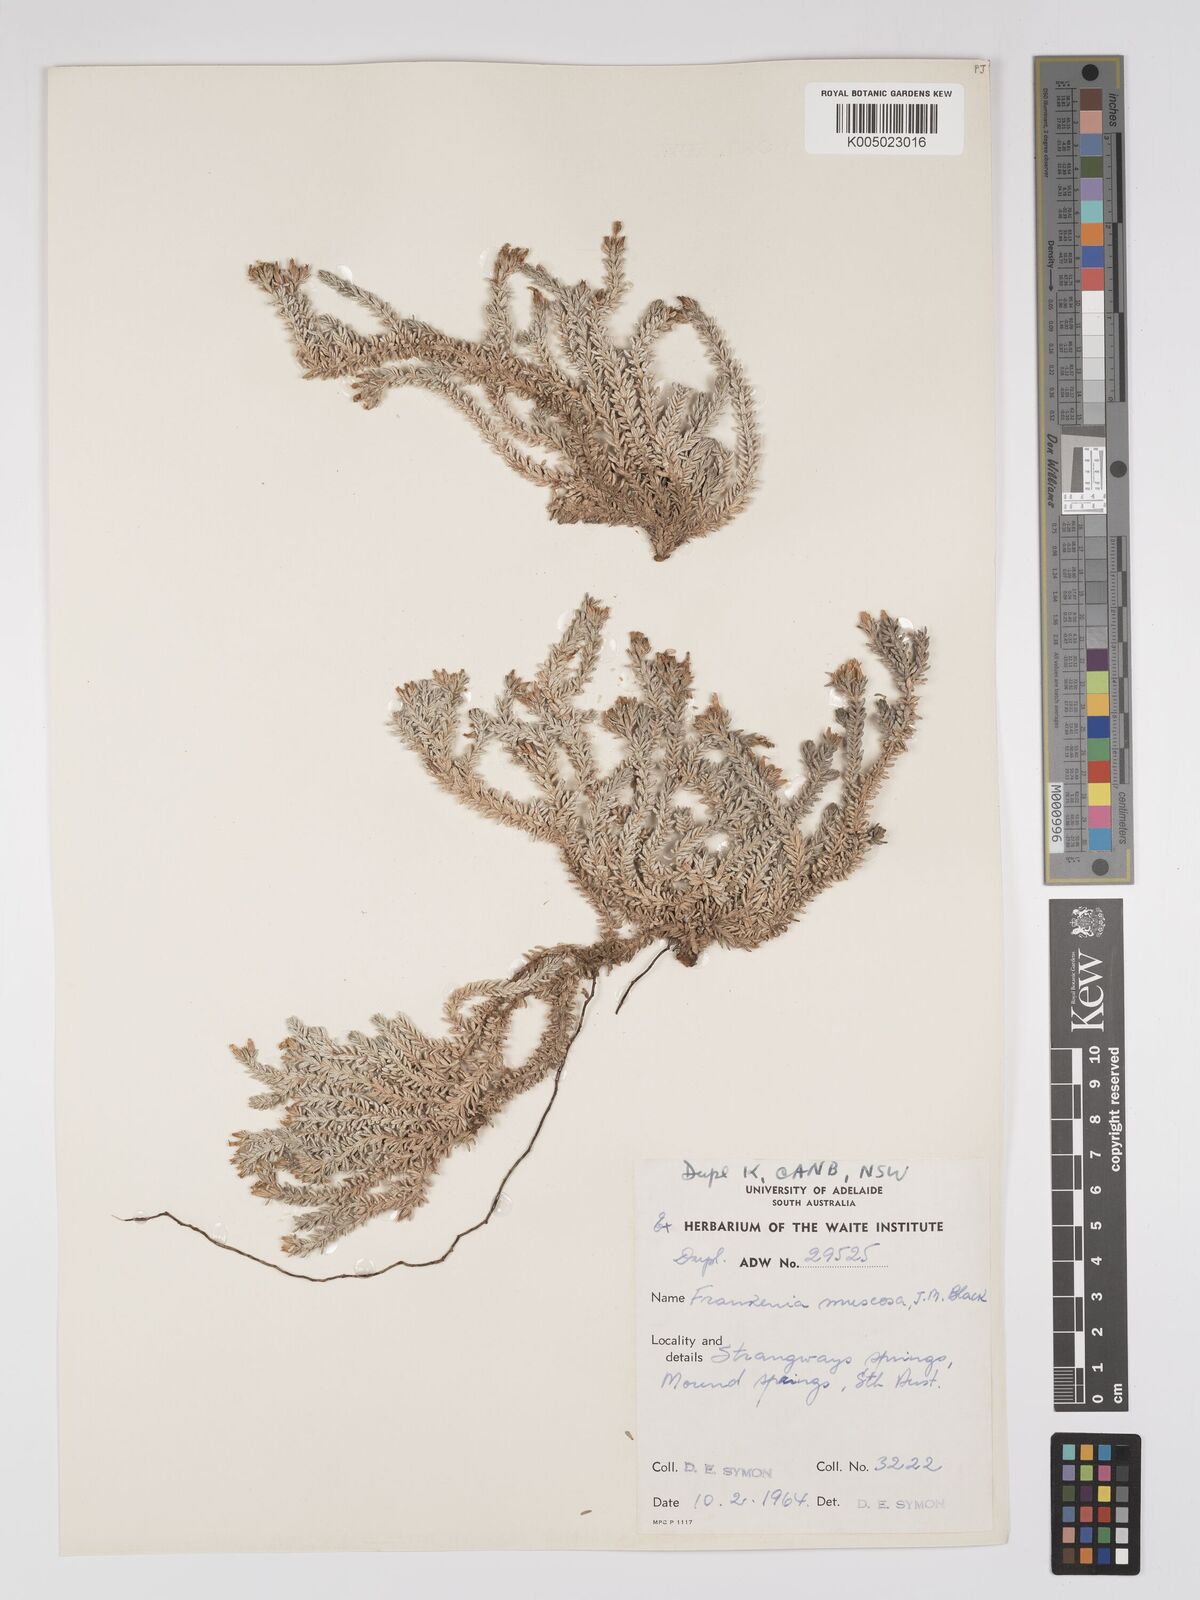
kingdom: Plantae
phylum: Tracheophyta
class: Magnoliopsida
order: Caryophyllales
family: Frankeniaceae
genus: Frankenia
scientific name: Frankenia muscosa
